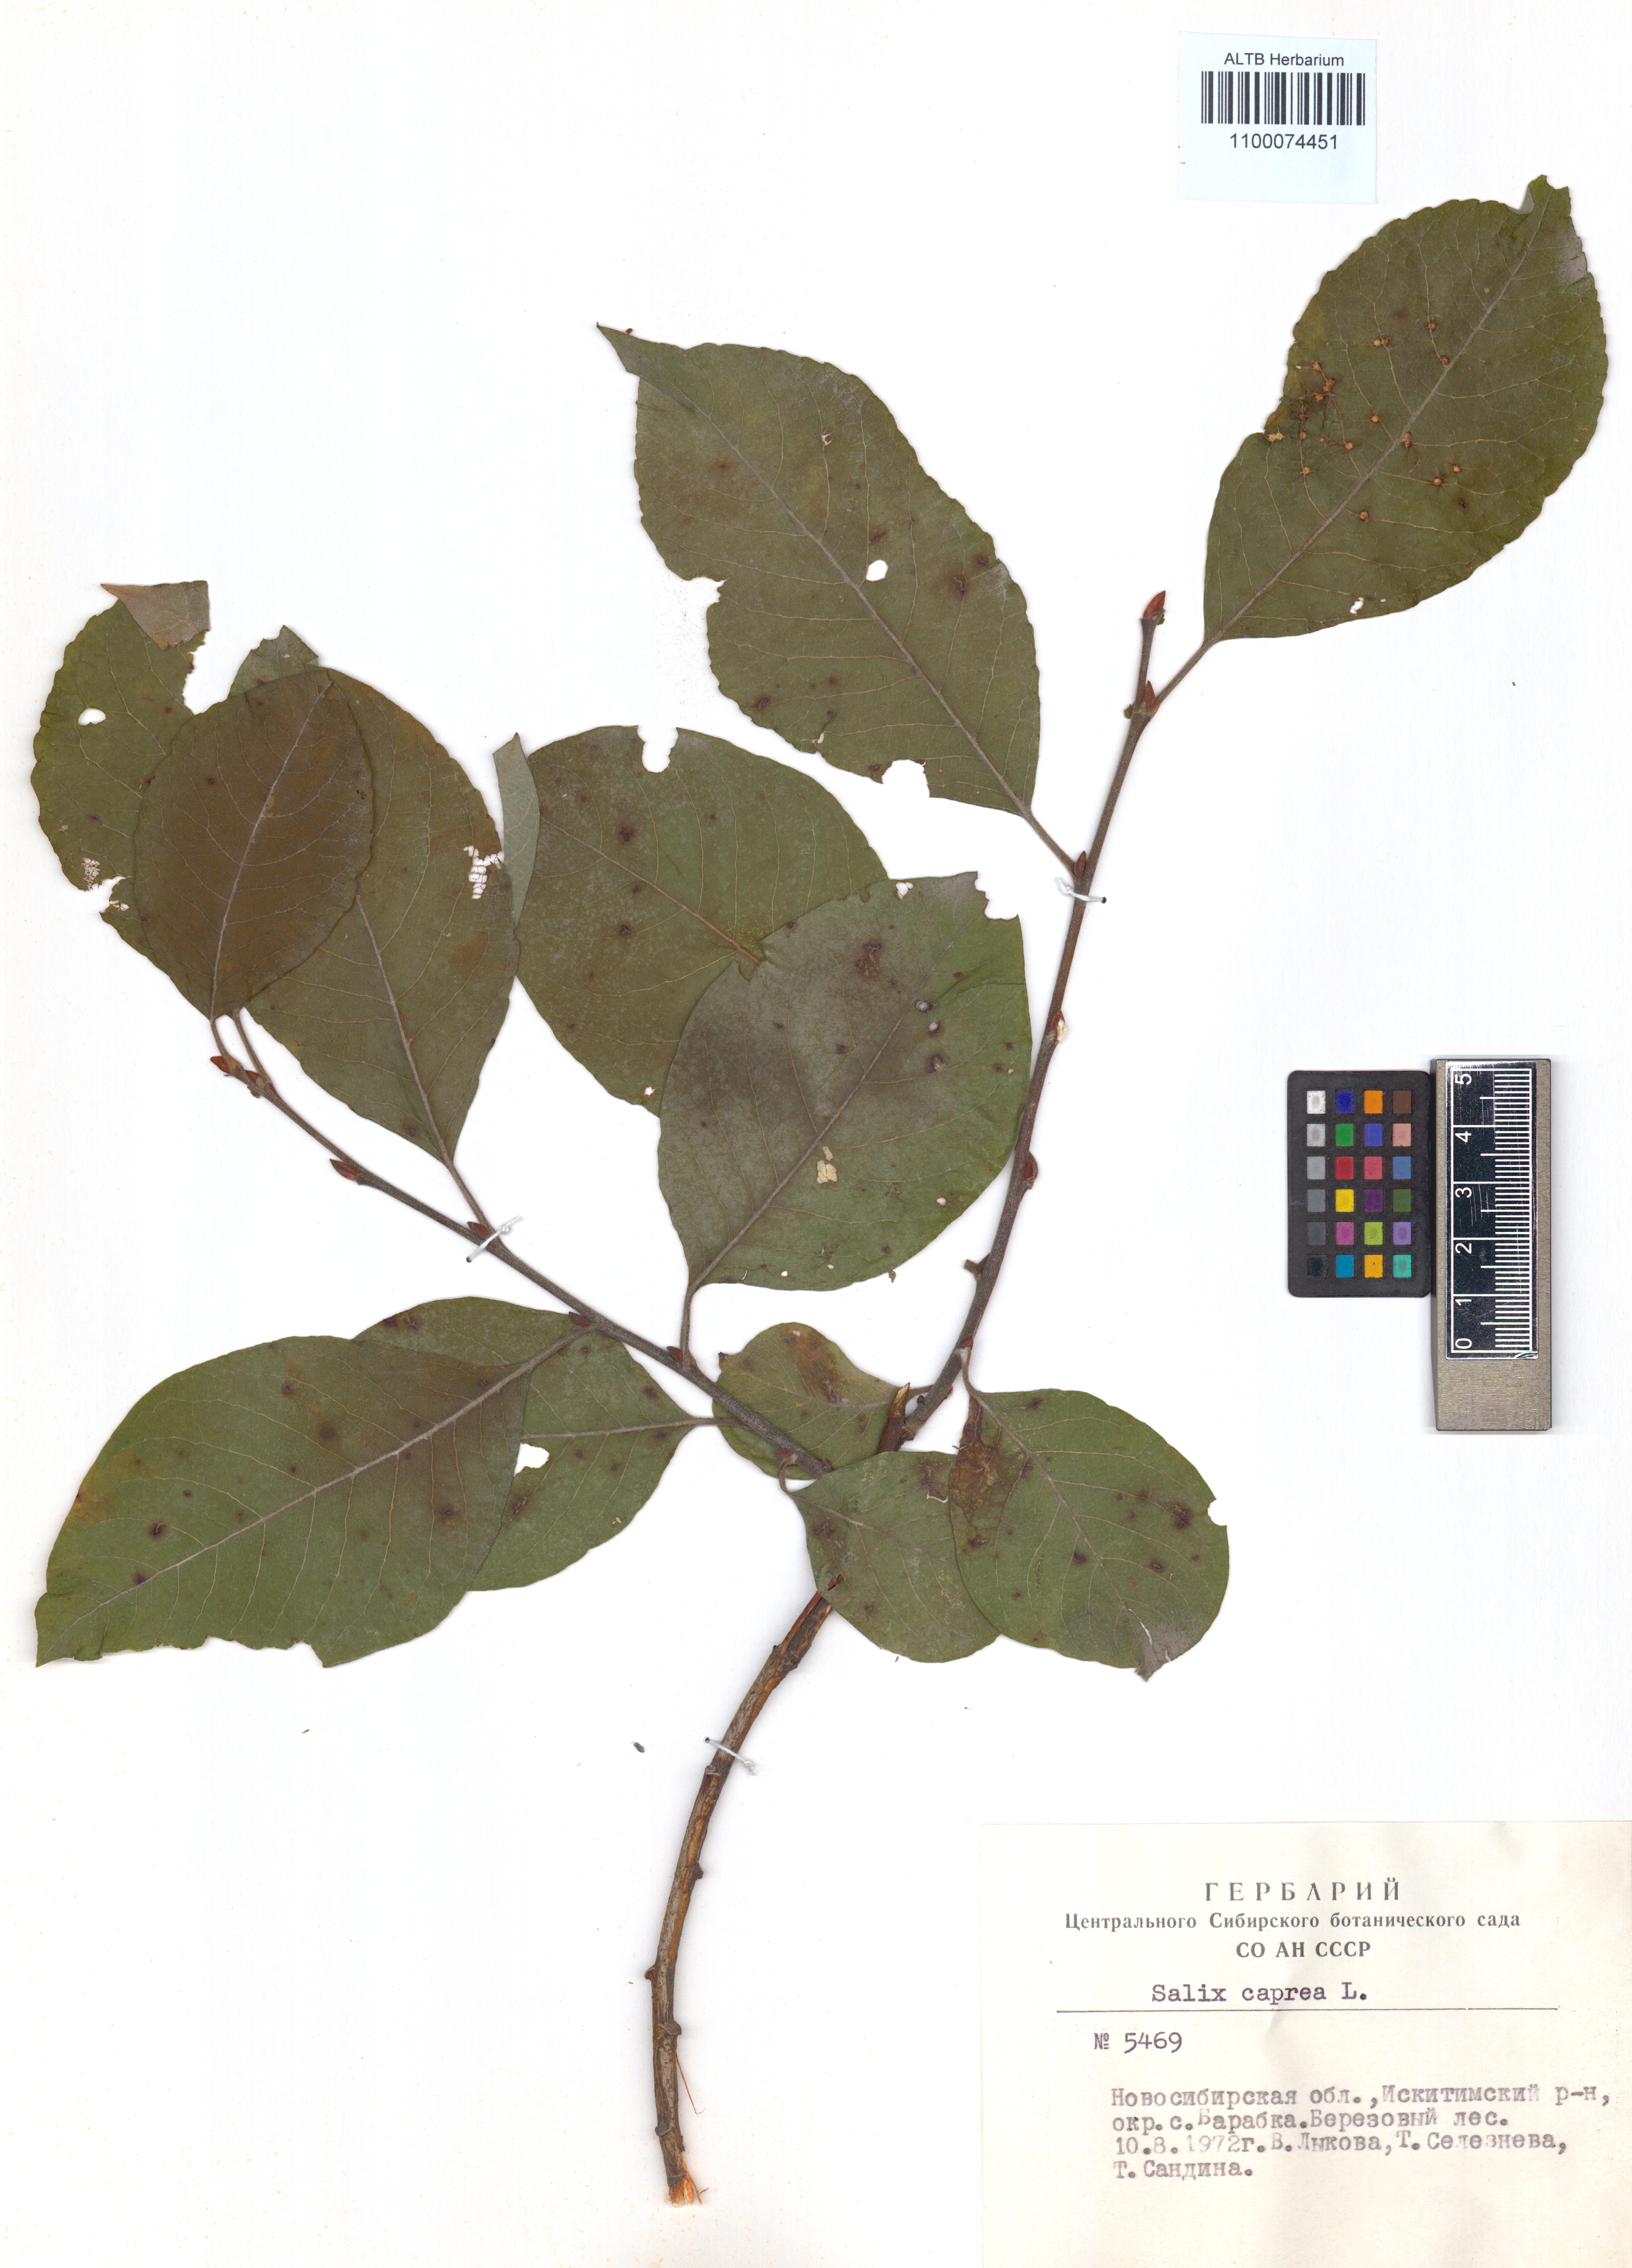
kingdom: Plantae
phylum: Tracheophyta
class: Magnoliopsida
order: Malpighiales
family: Salicaceae
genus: Salix
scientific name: Salix caprea
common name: Goat willow
